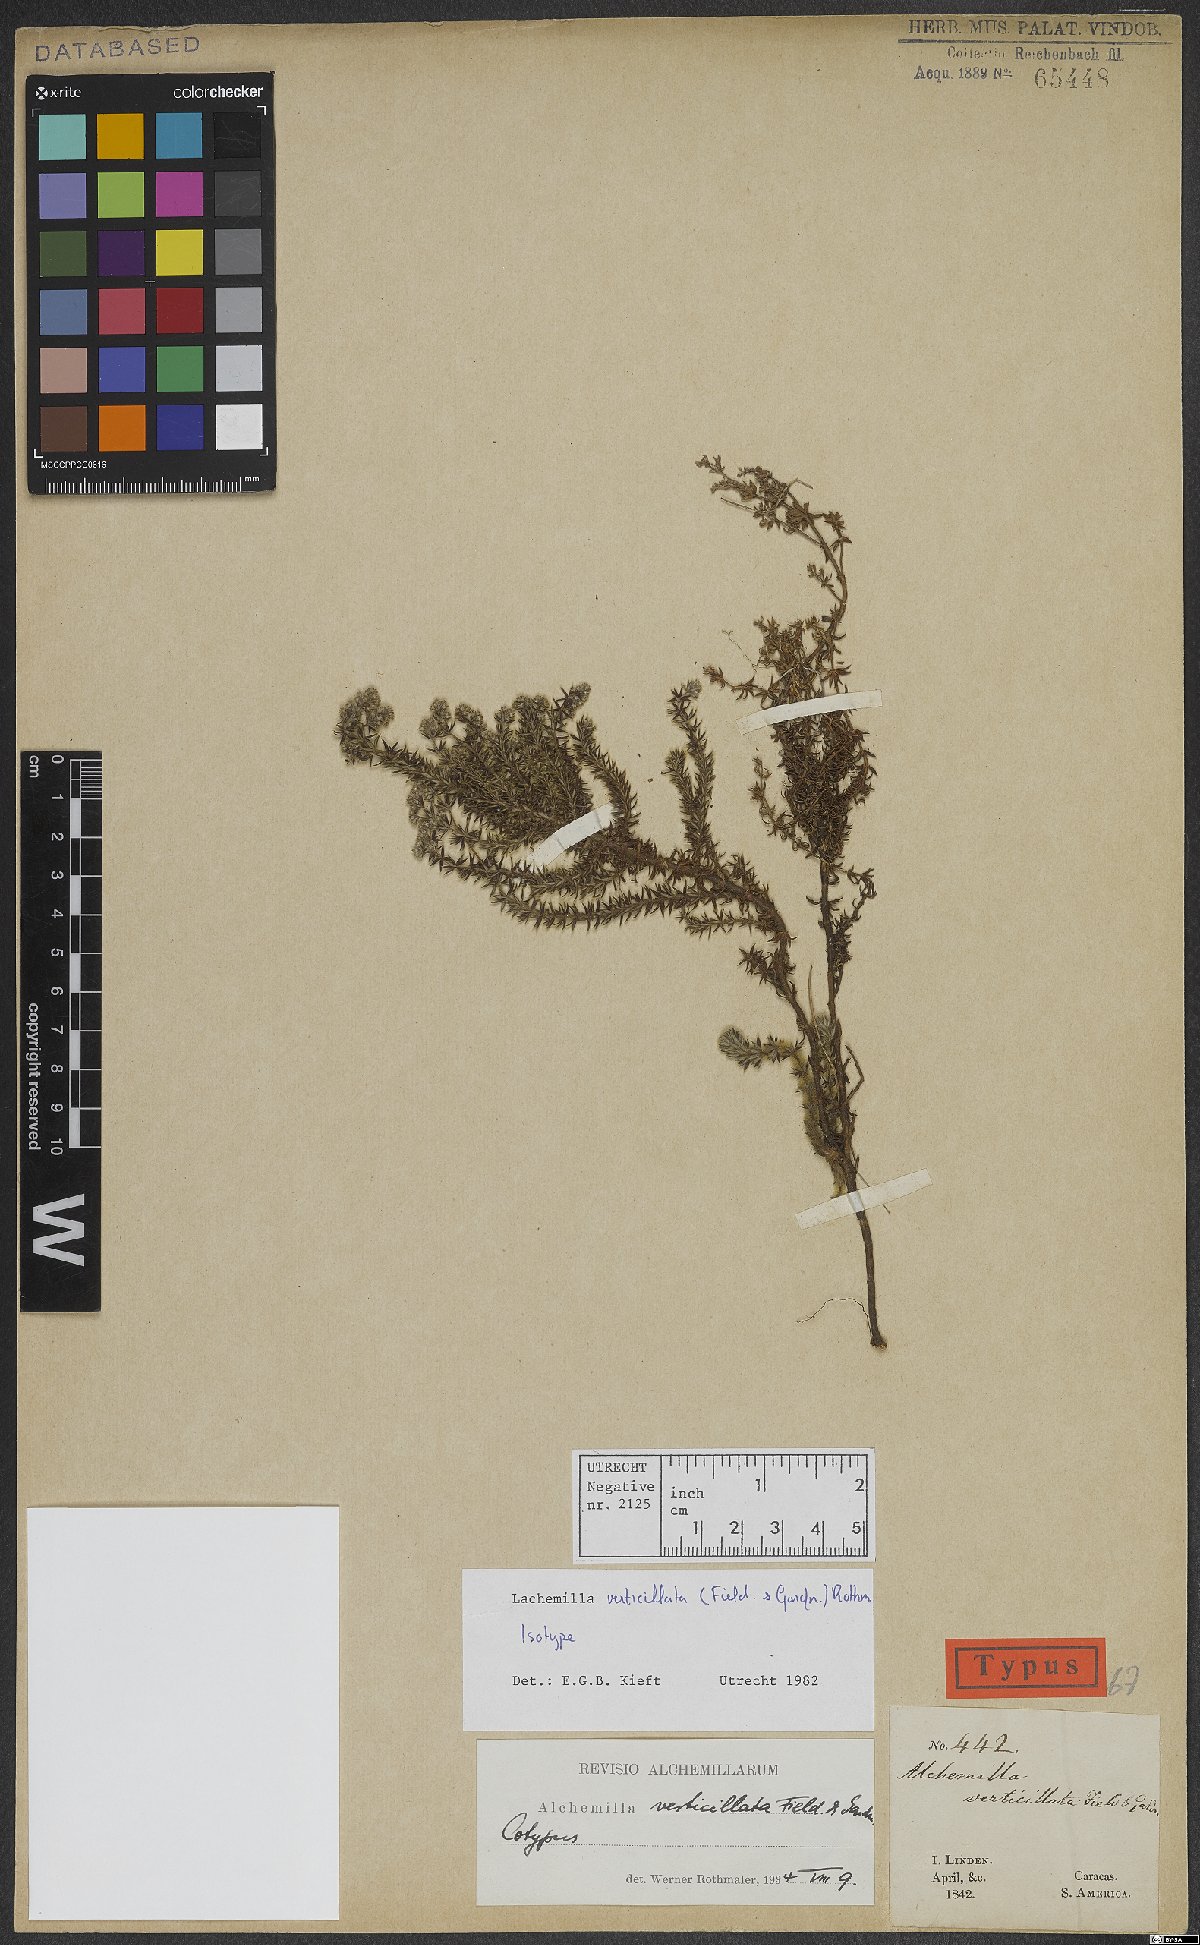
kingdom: Plantae
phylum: Tracheophyta
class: Magnoliopsida
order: Rosales
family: Rosaceae
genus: Lachemilla
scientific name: Lachemilla verticillata
